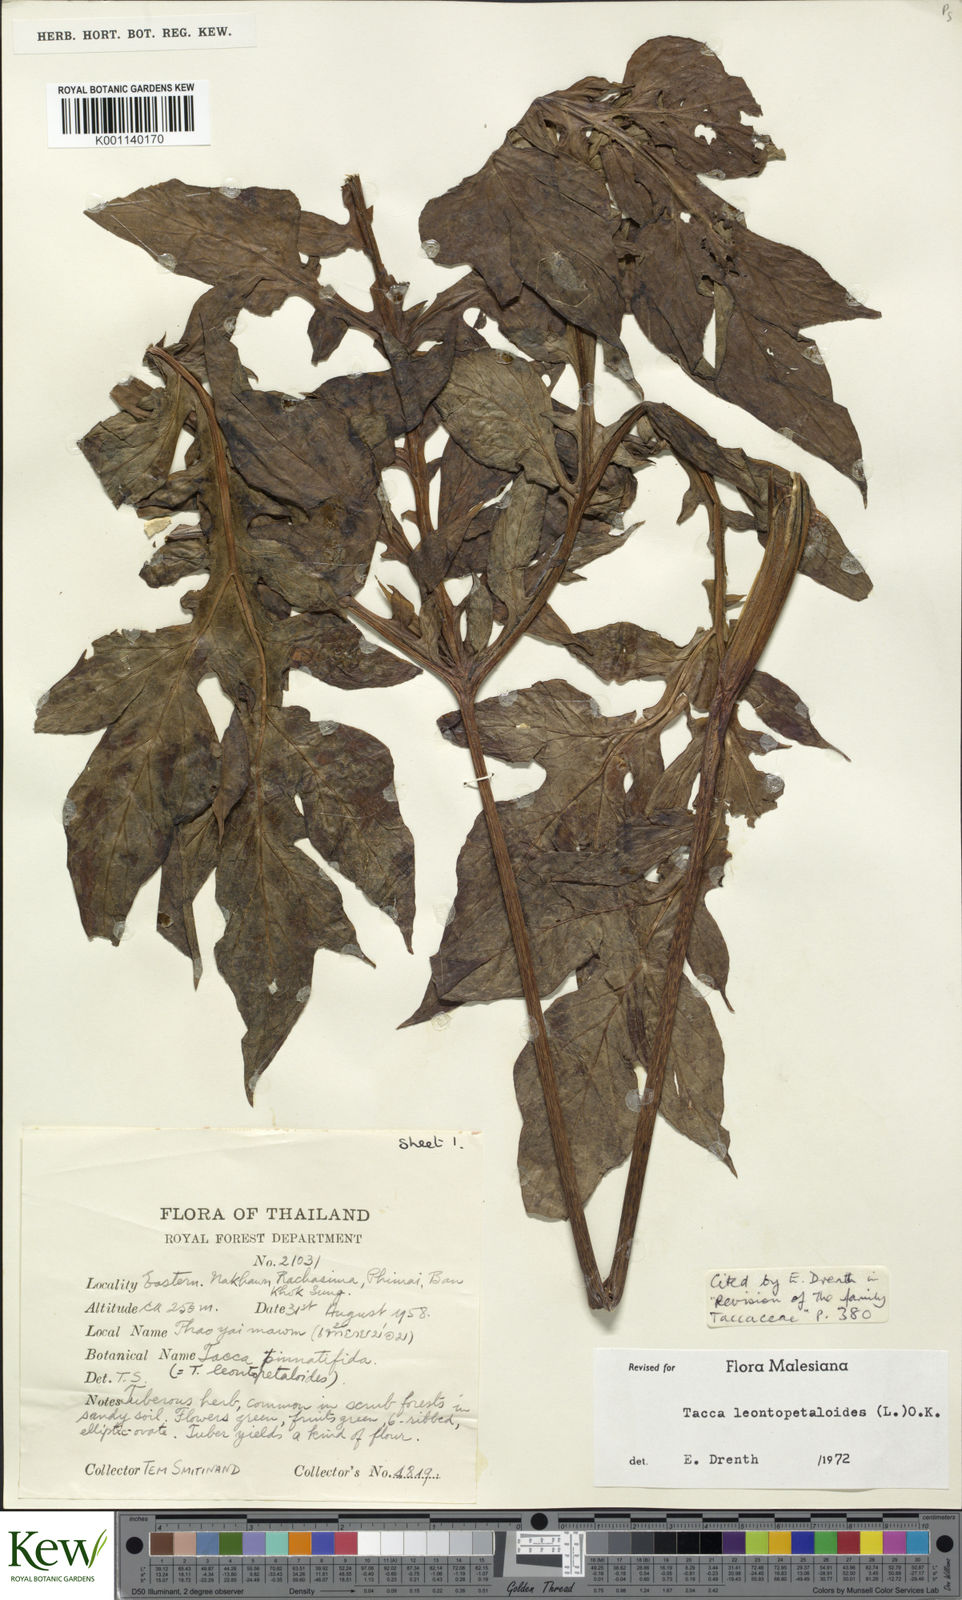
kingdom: Plantae
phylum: Tracheophyta
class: Liliopsida
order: Dioscoreales
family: Dioscoreaceae
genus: Tacca
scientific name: Tacca leontopetaloides
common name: Arrowroot
